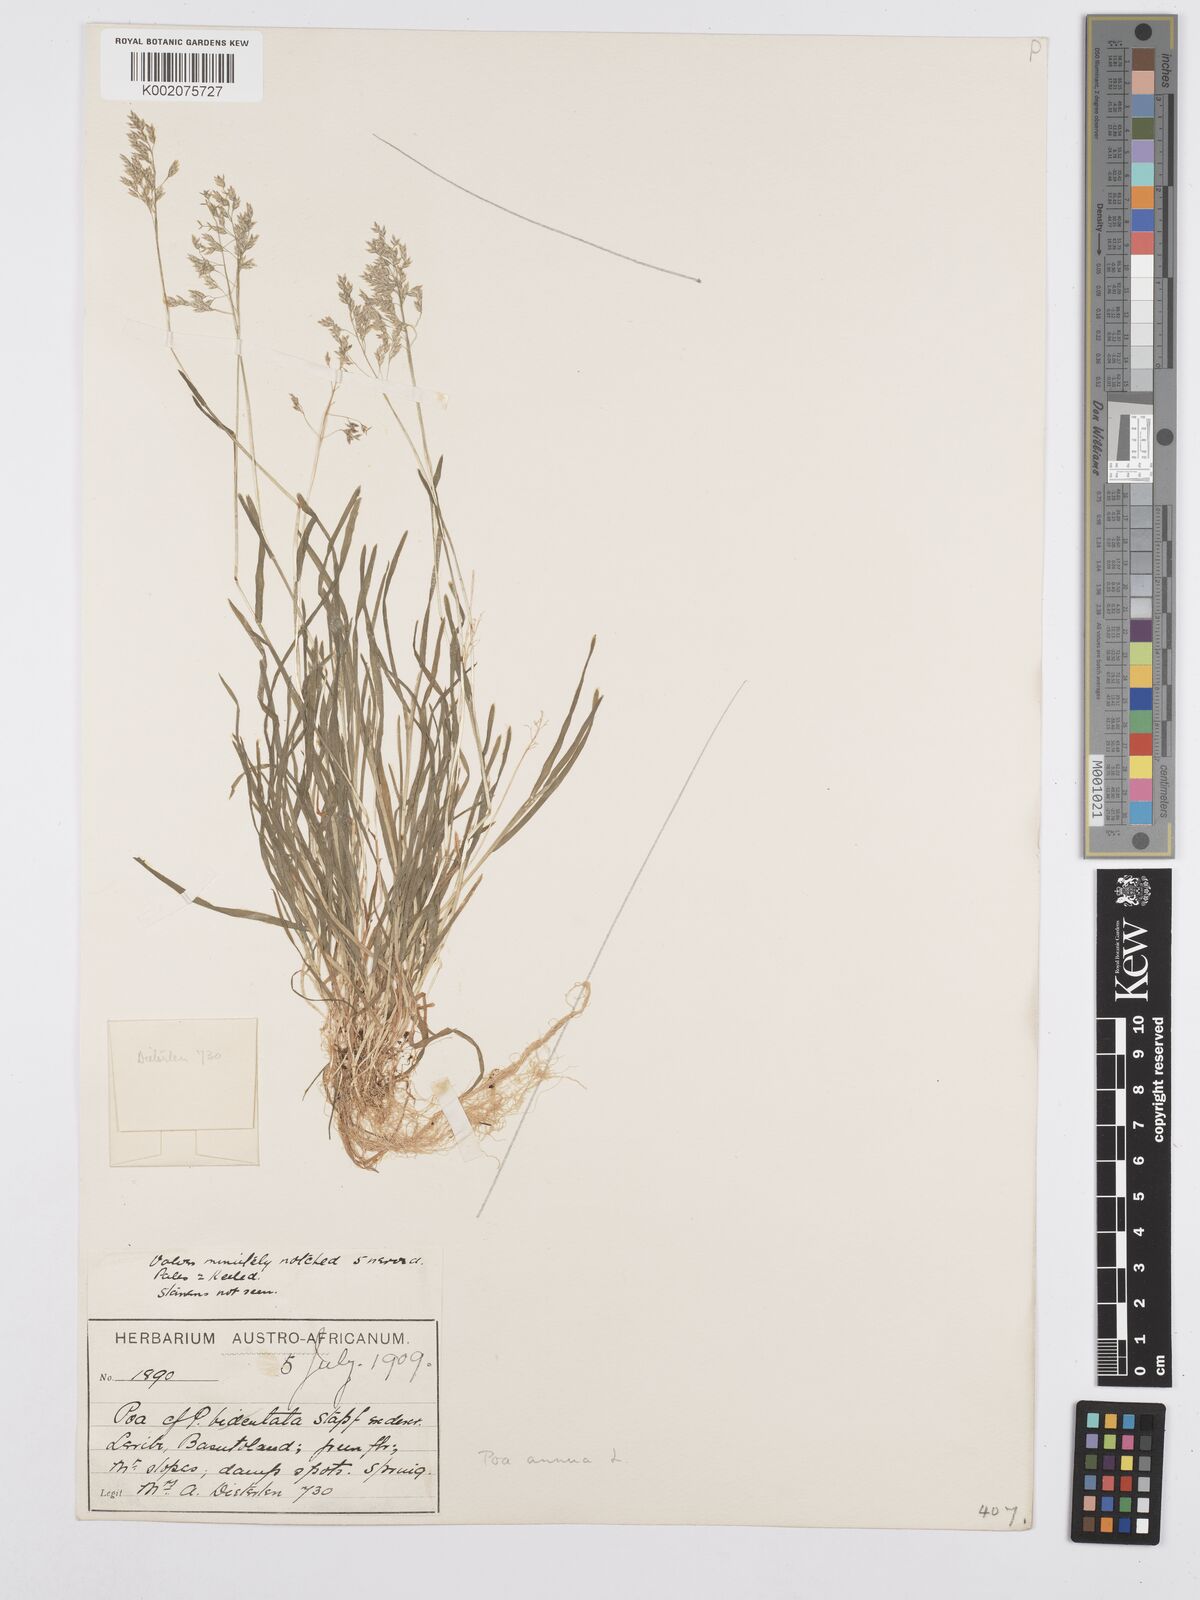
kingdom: Plantae
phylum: Tracheophyta
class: Liliopsida
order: Poales
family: Poaceae
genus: Poa
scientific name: Poa annua
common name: Annual bluegrass
